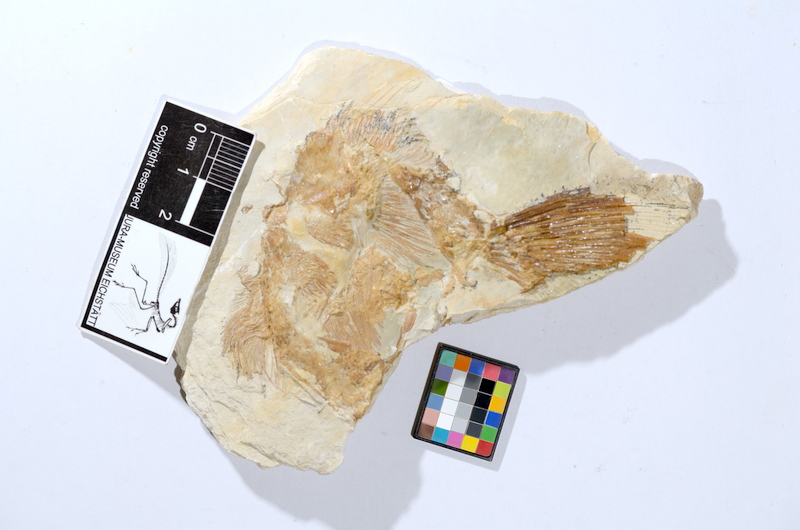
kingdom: Animalia
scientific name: Animalia
